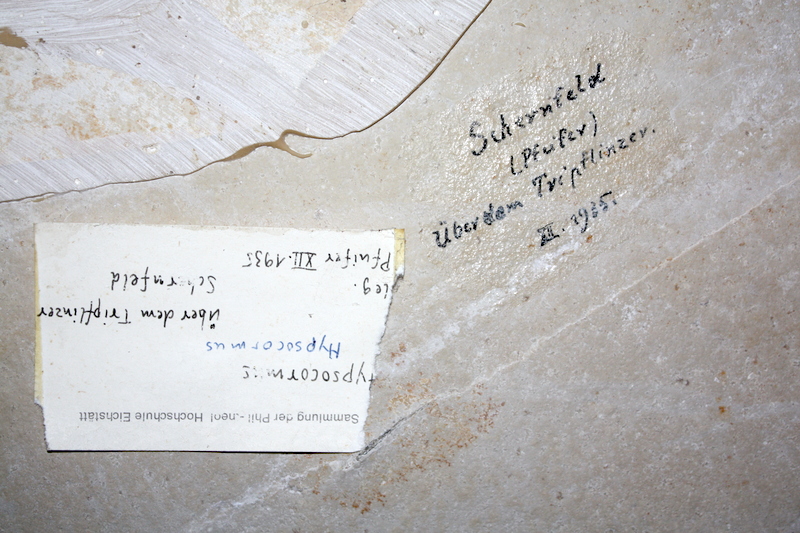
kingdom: Animalia
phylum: Chordata
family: Pachycormidae
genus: Sauropsis
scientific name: Sauropsis longimanus
